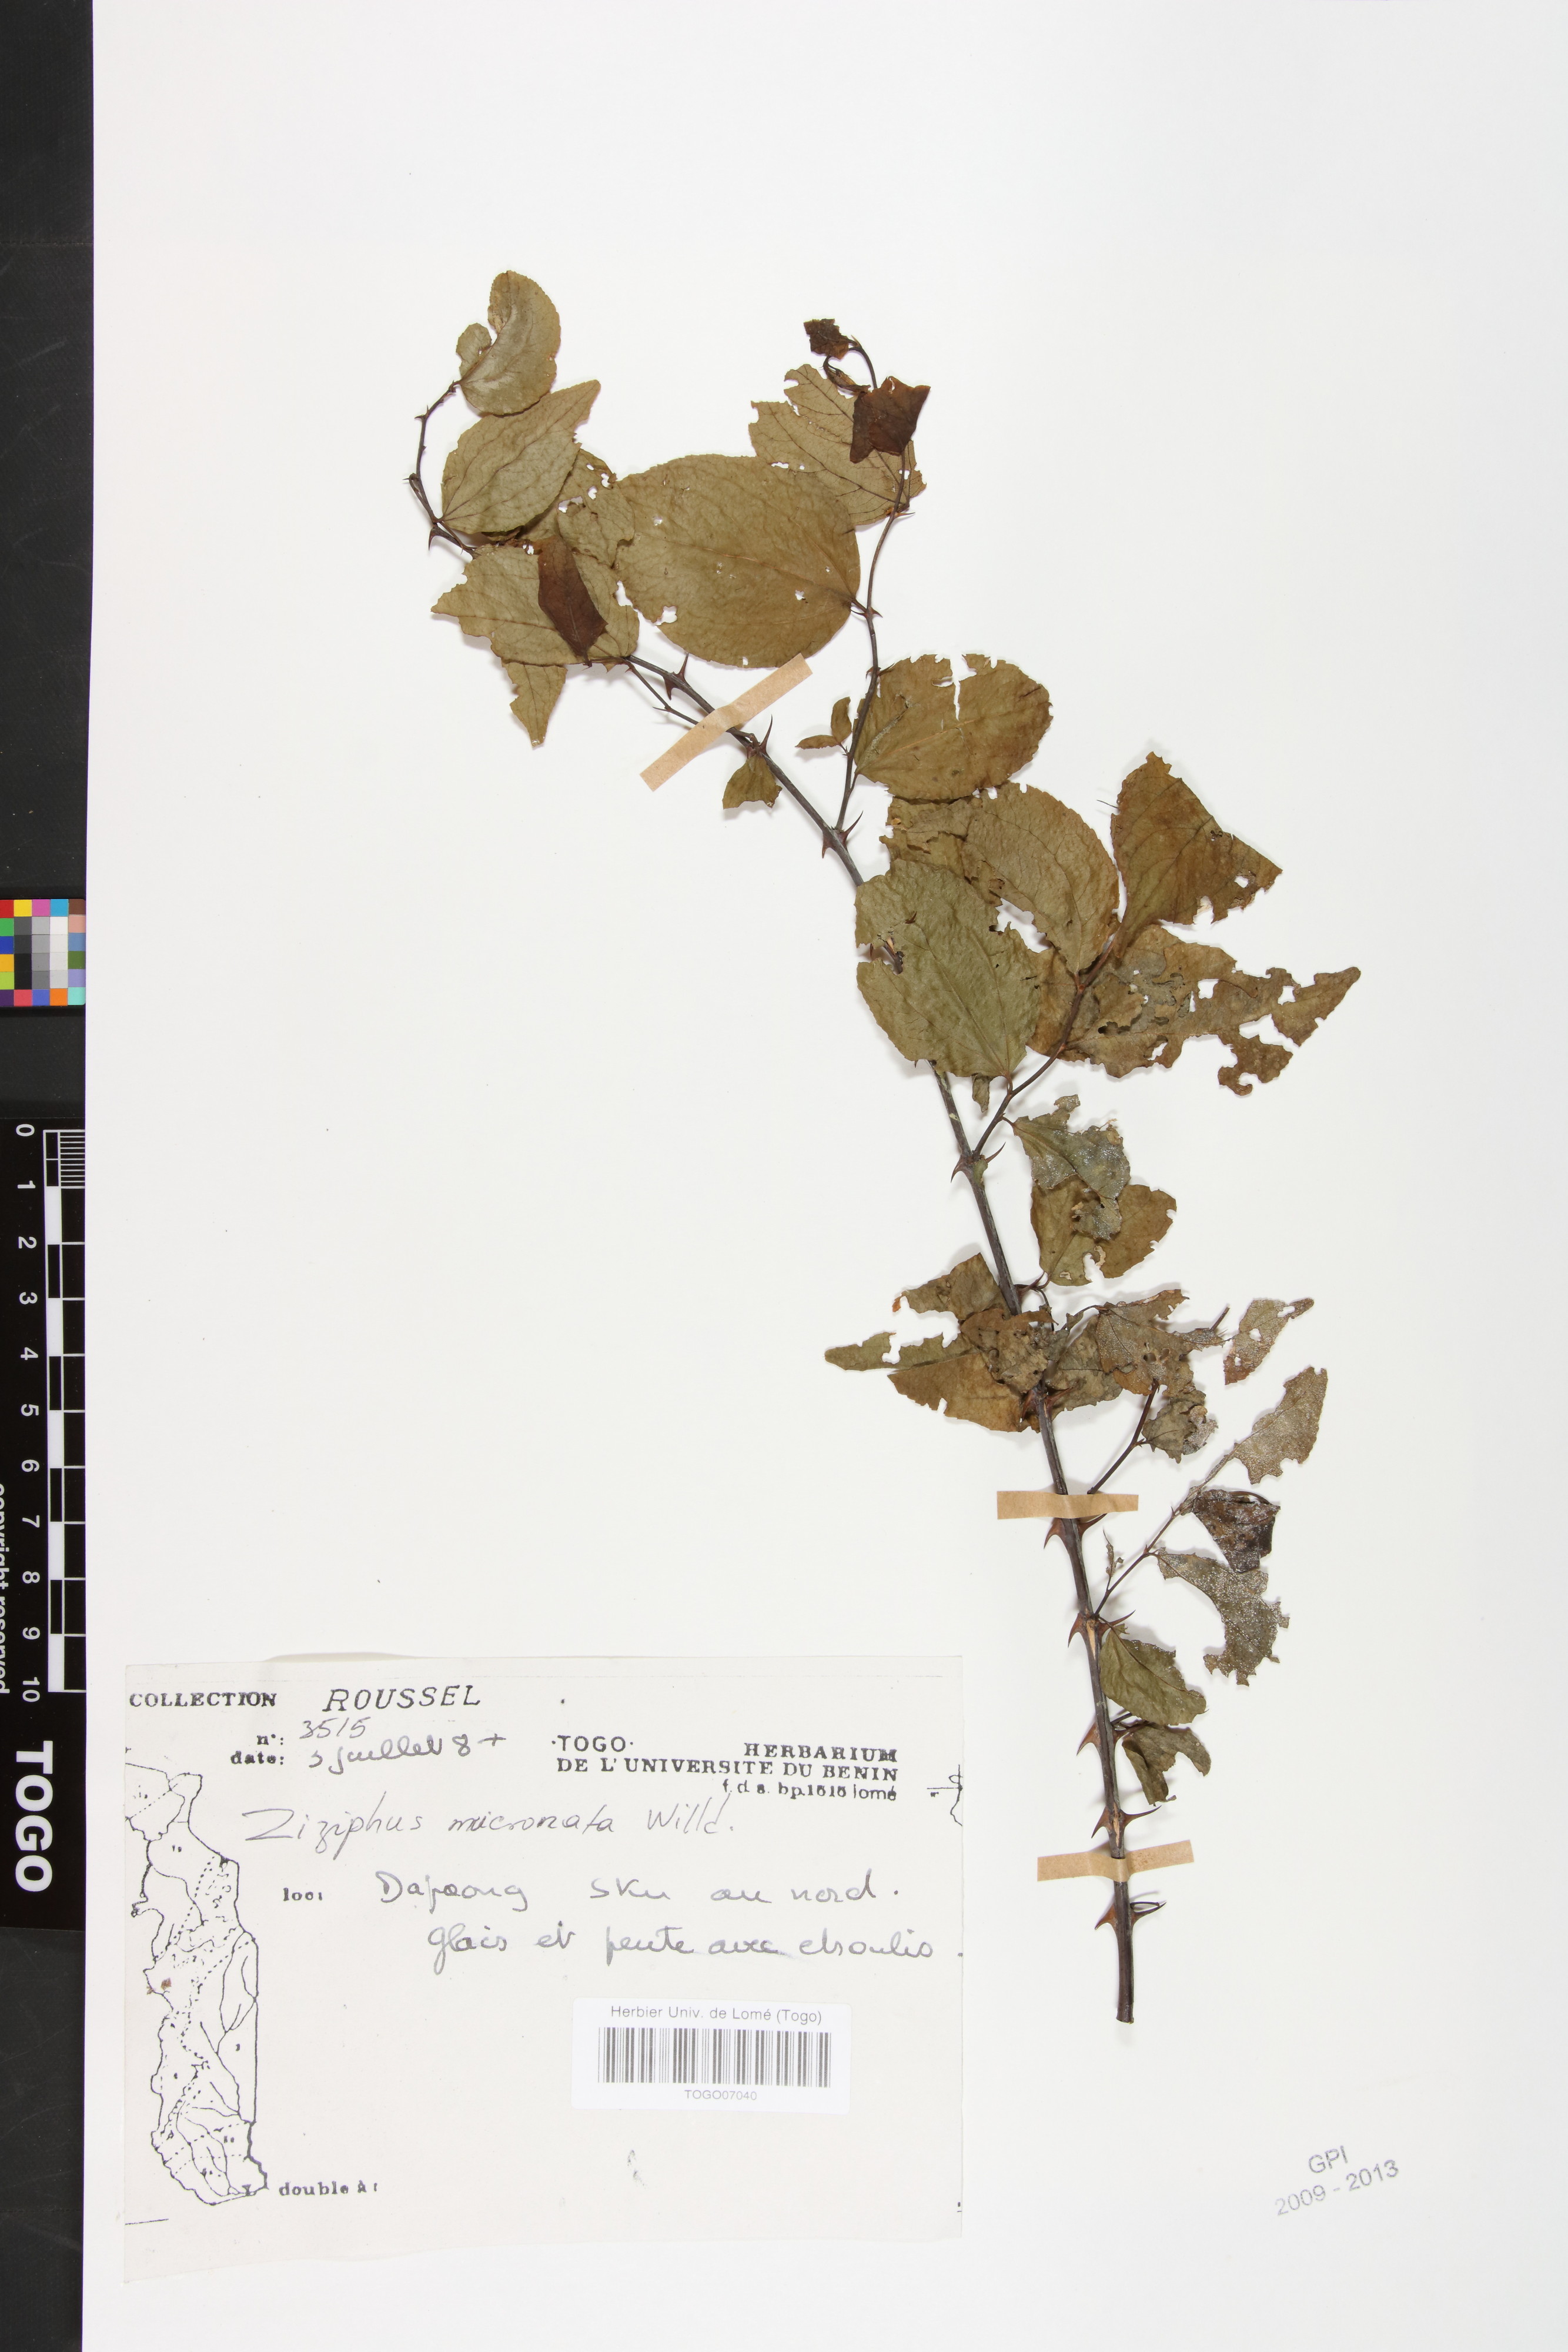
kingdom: Plantae
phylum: Tracheophyta
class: Magnoliopsida
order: Rosales
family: Rhamnaceae
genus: Ziziphus
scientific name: Ziziphus mucronata
